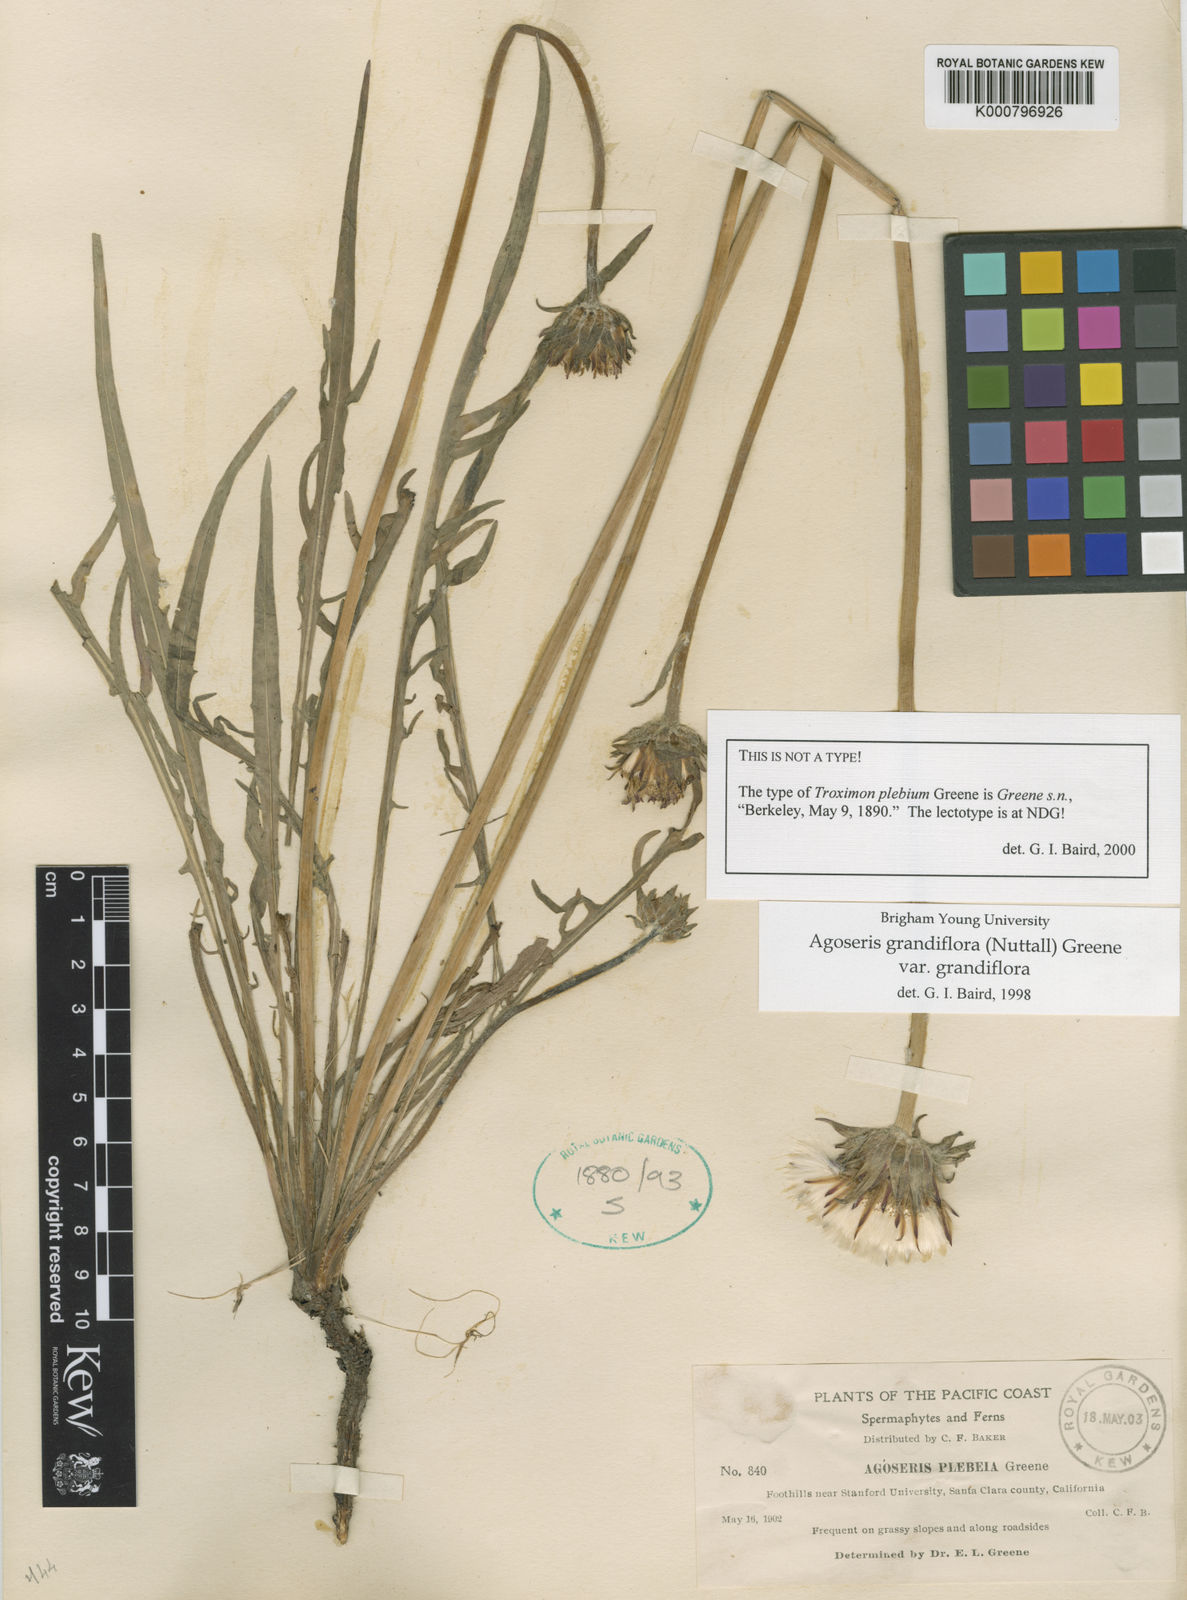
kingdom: Plantae
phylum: Tracheophyta
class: Magnoliopsida
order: Asterales
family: Asteraceae
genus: Agoseris
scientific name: Agoseris grandiflora
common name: Grassland agoseris
